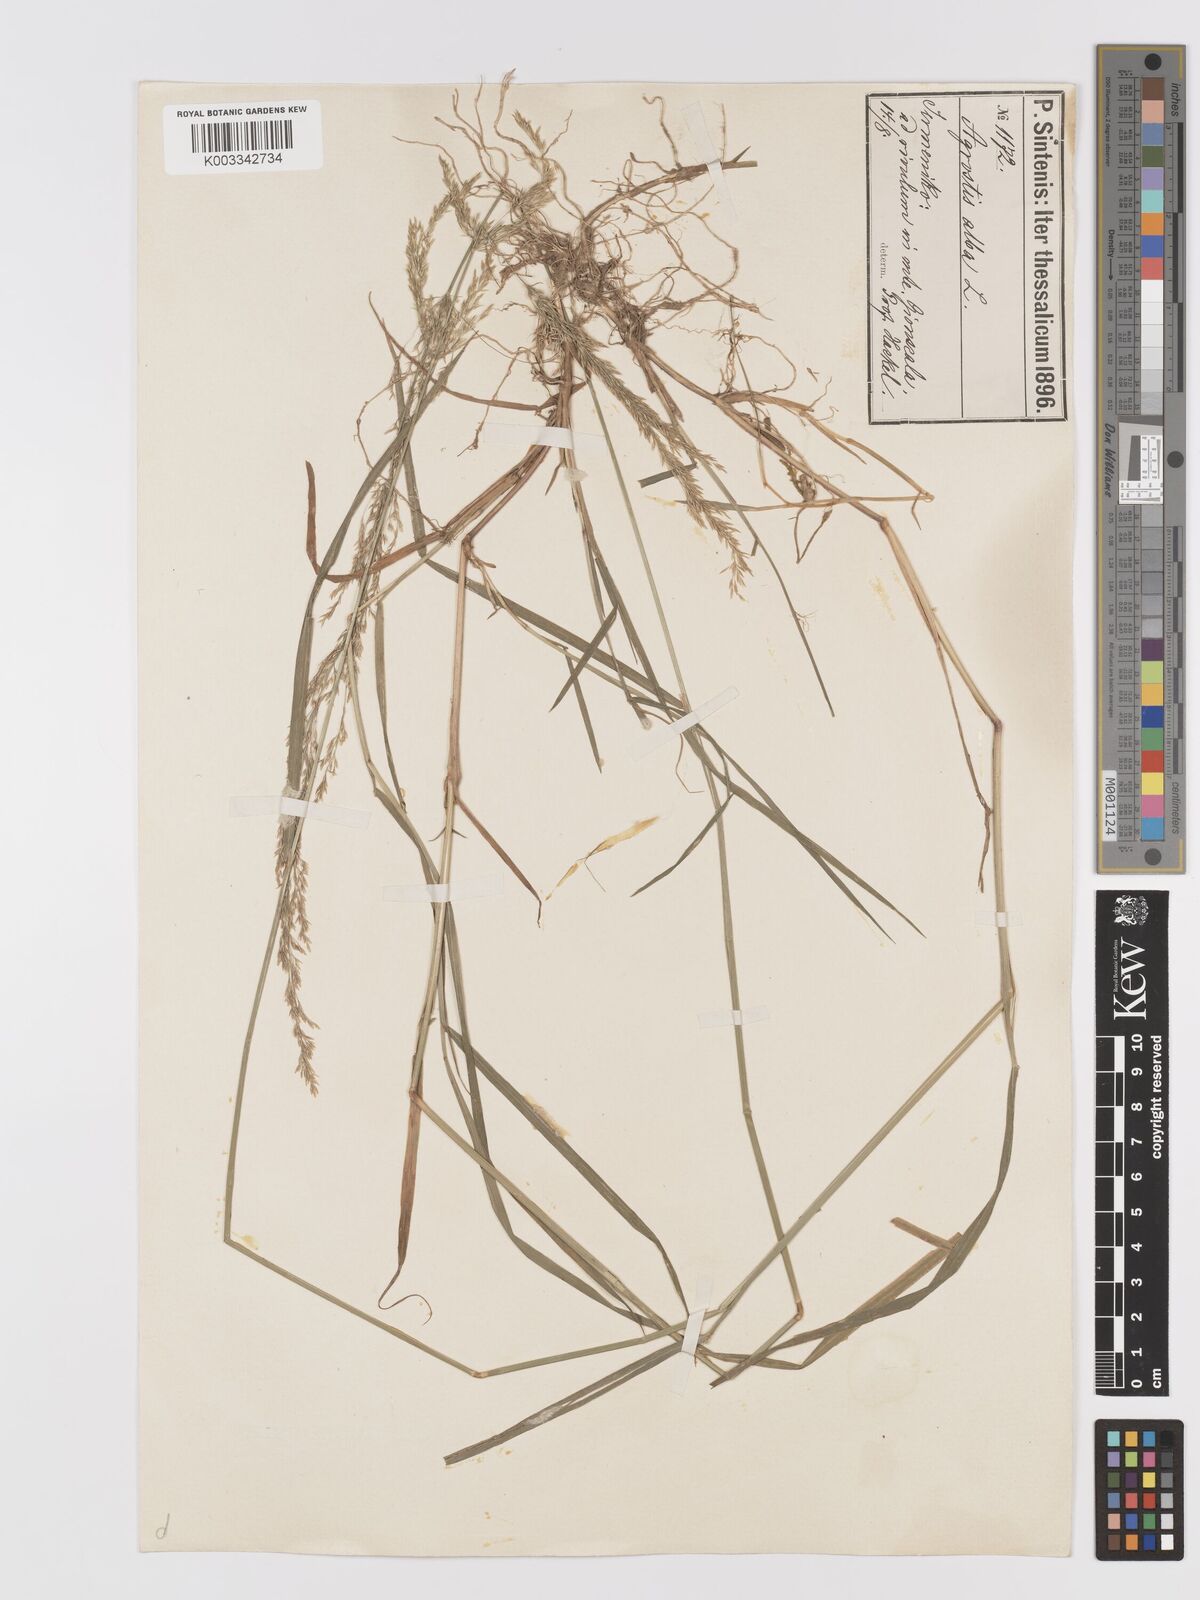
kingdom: Plantae
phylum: Tracheophyta
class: Liliopsida
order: Poales
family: Poaceae
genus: Agrostis
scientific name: Agrostis stolonifera
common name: Creeping bentgrass
